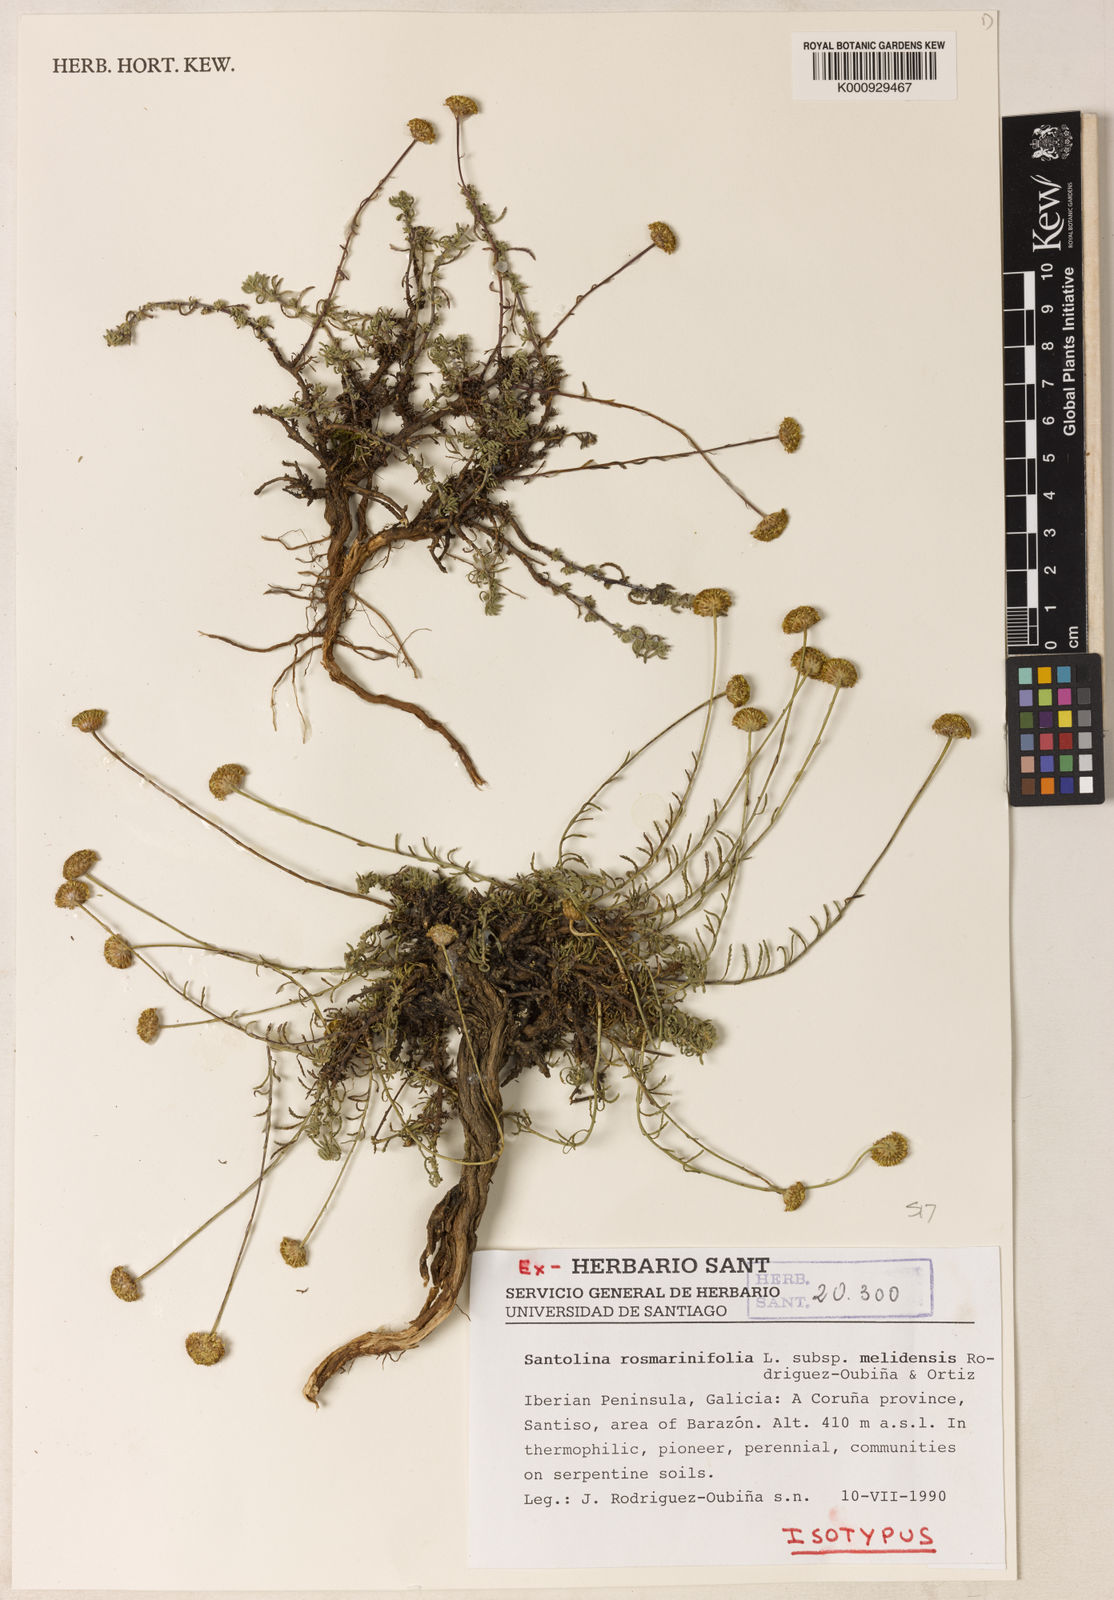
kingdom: Plantae
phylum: Tracheophyta
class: Magnoliopsida
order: Asterales
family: Asteraceae
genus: Santolina
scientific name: Santolina rosmarinifolia
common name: Holy-flax
